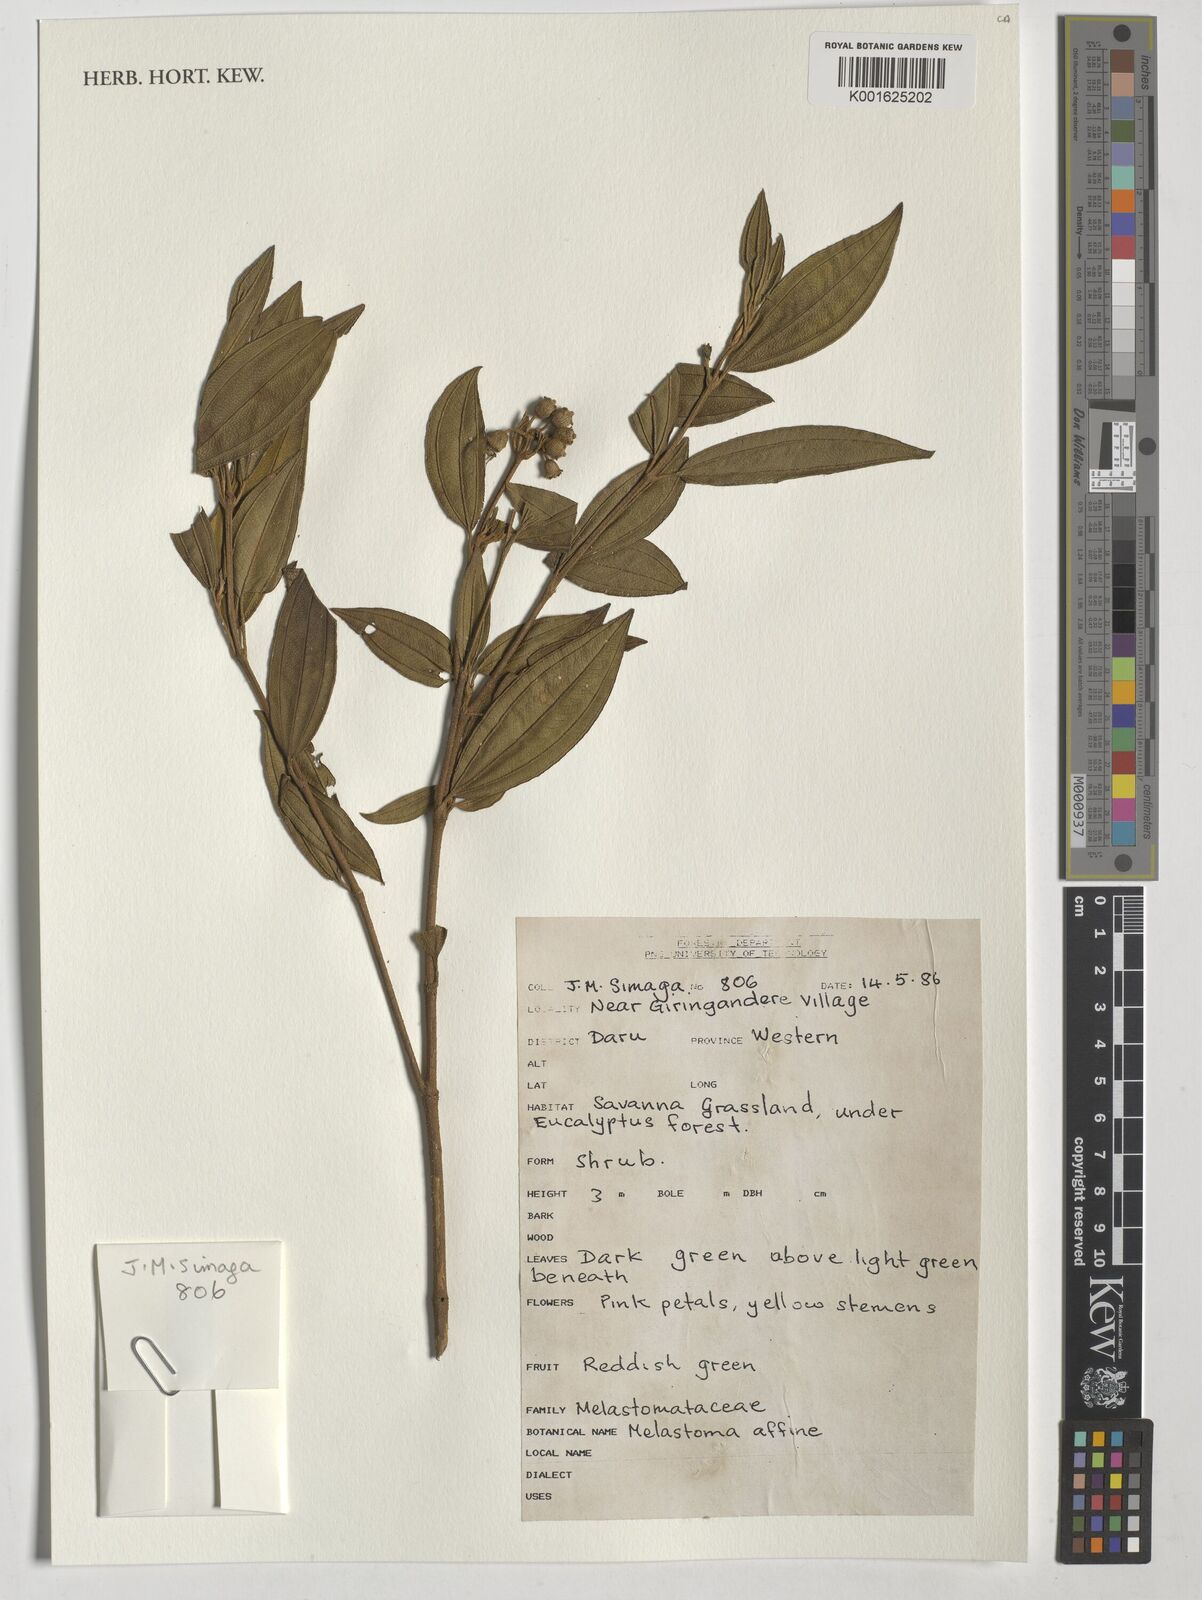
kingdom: Plantae
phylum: Tracheophyta
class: Magnoliopsida
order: Myrtales
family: Melastomataceae
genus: Melastoma
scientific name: Melastoma malabathricum
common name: Indian-rhododendron
